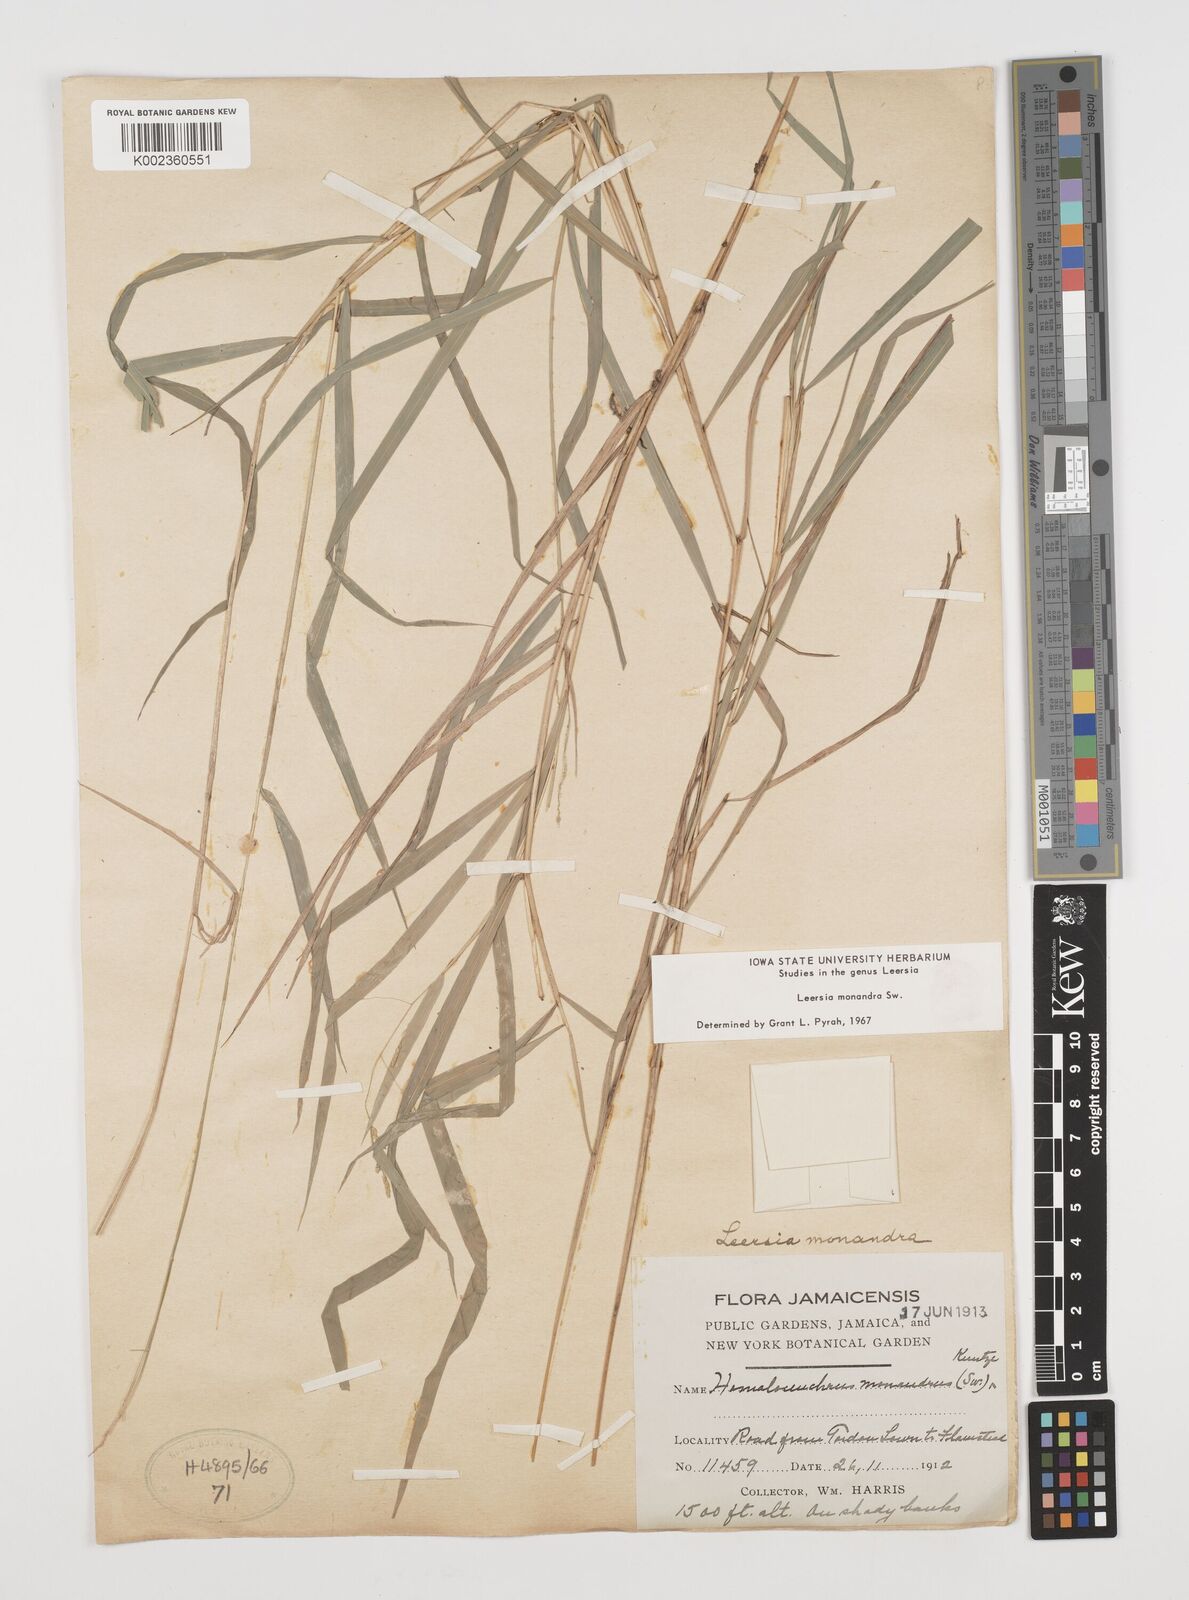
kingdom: Plantae
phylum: Tracheophyta
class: Liliopsida
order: Poales
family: Poaceae
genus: Leersia
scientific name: Leersia monandra
